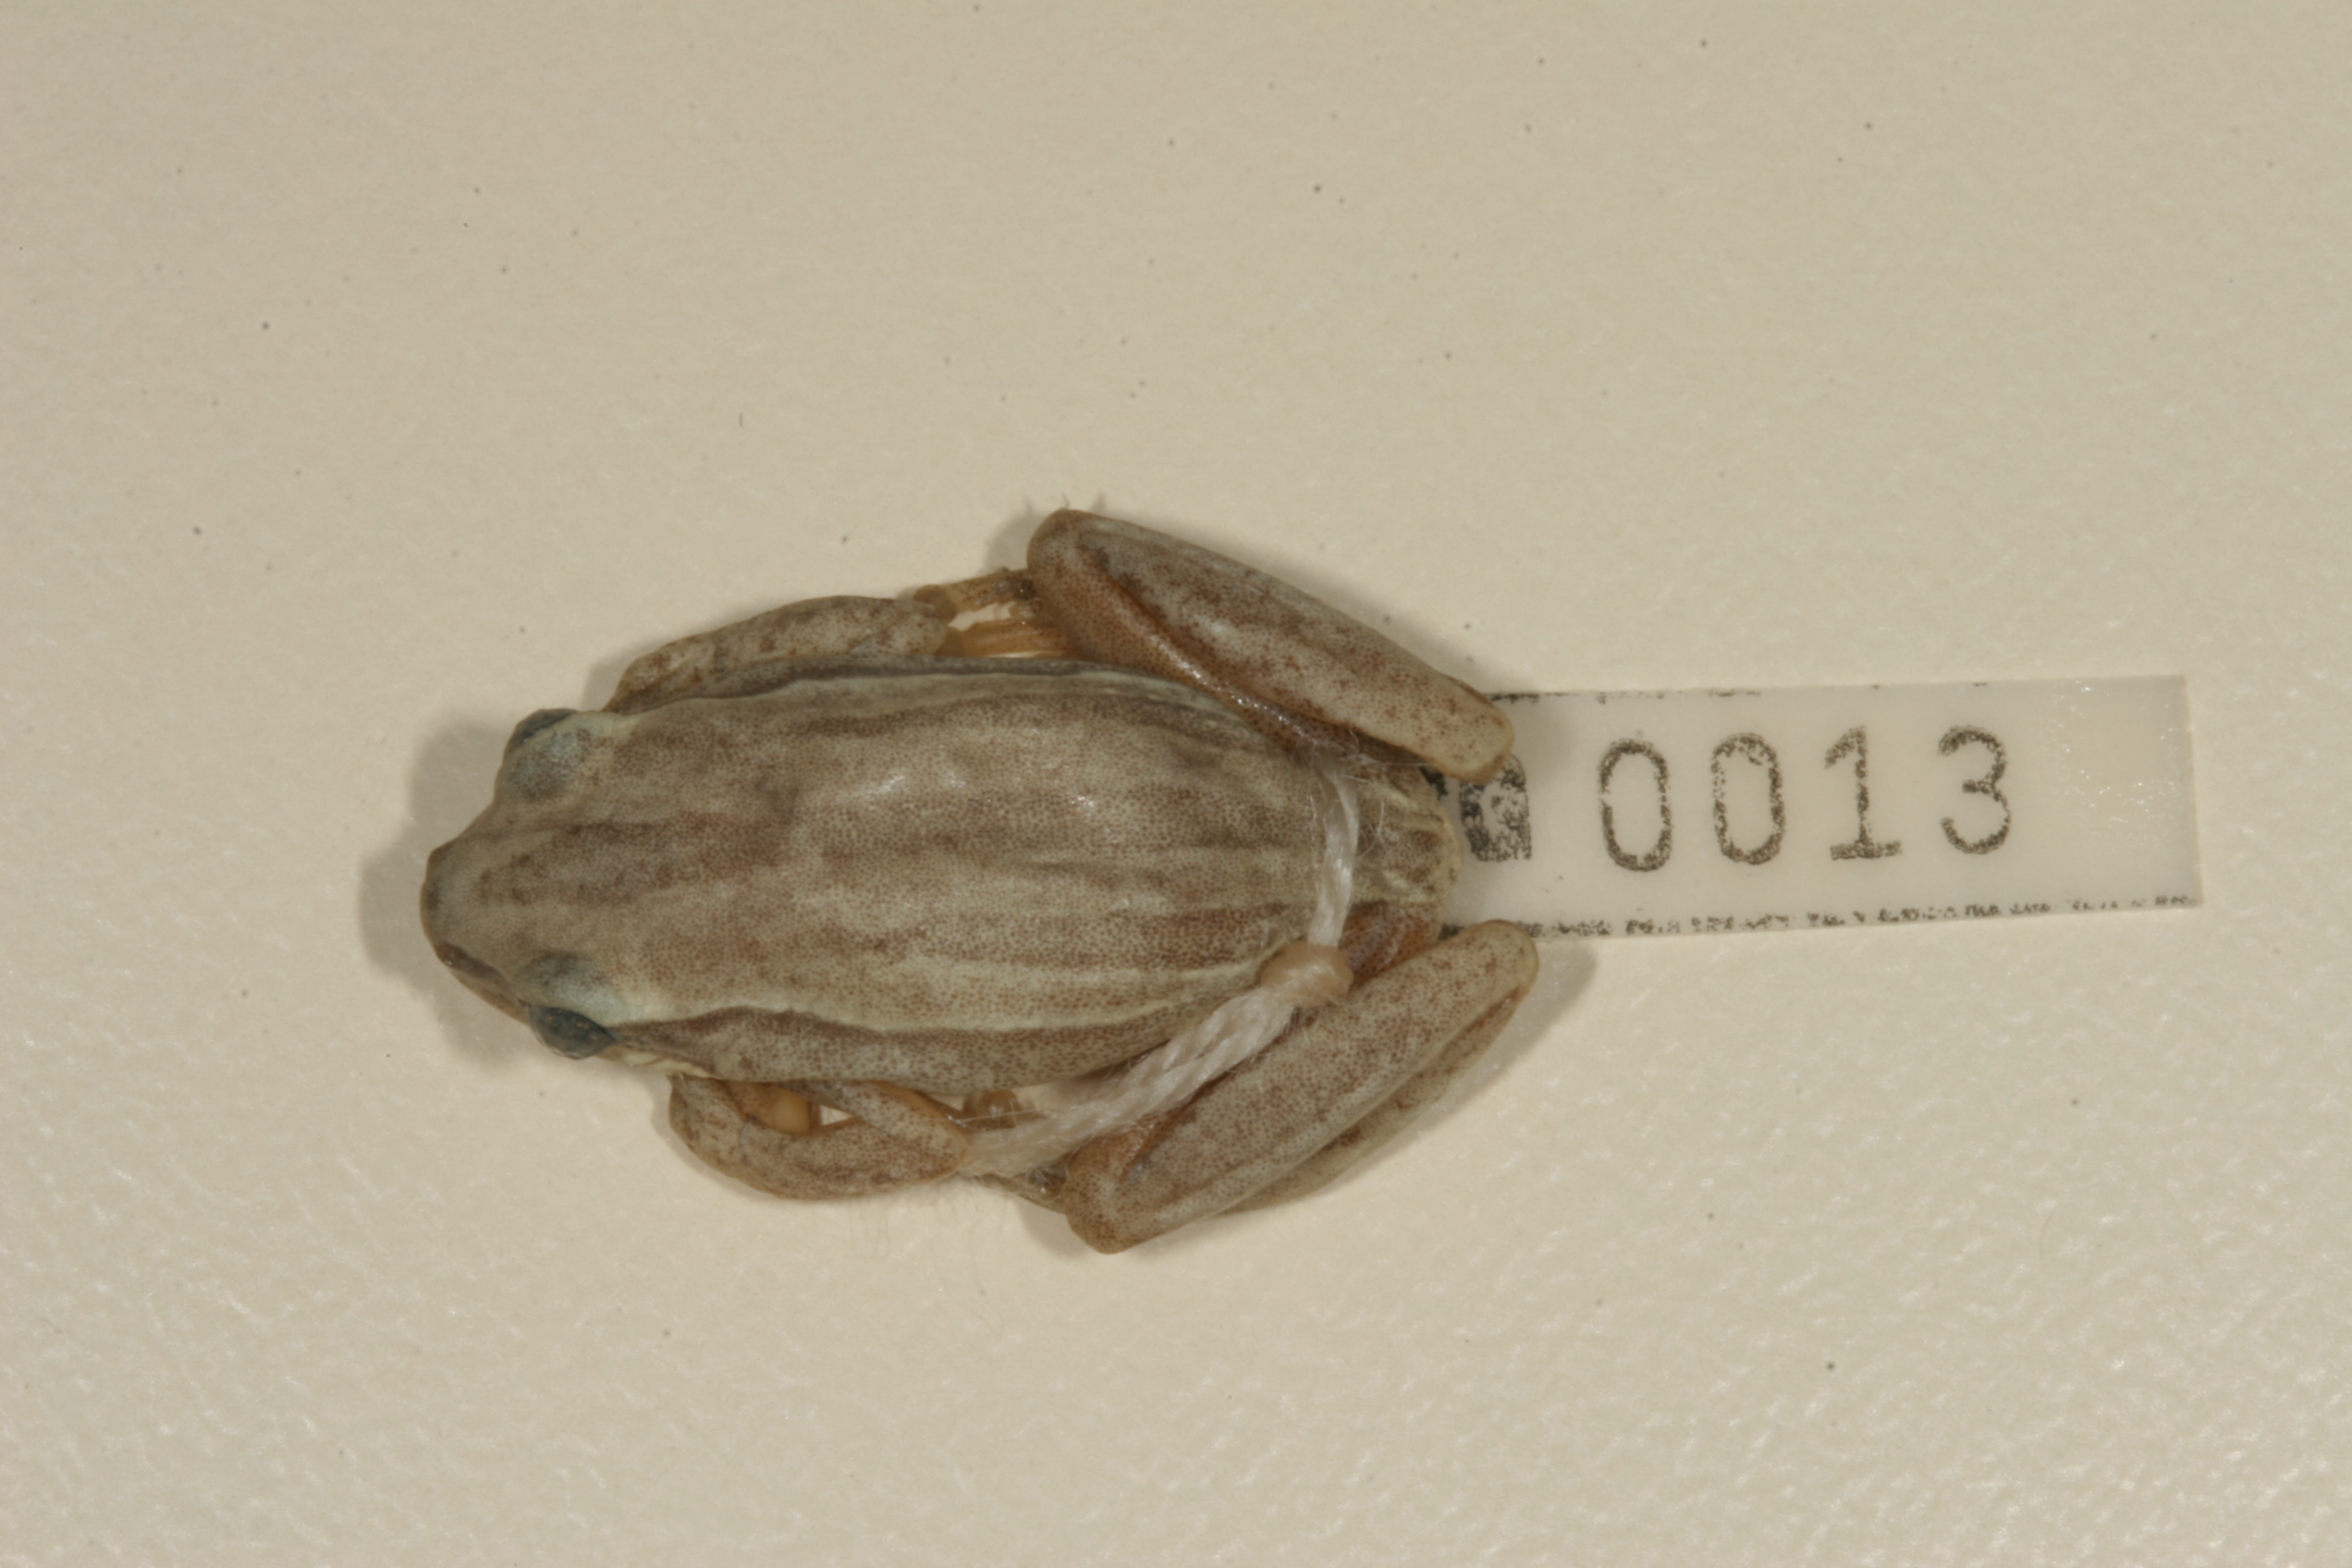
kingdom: Animalia
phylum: Chordata
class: Amphibia
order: Anura
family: Hyperoliidae
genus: Hyperolius
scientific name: Hyperolius marmoratus
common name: Painted reed frog
